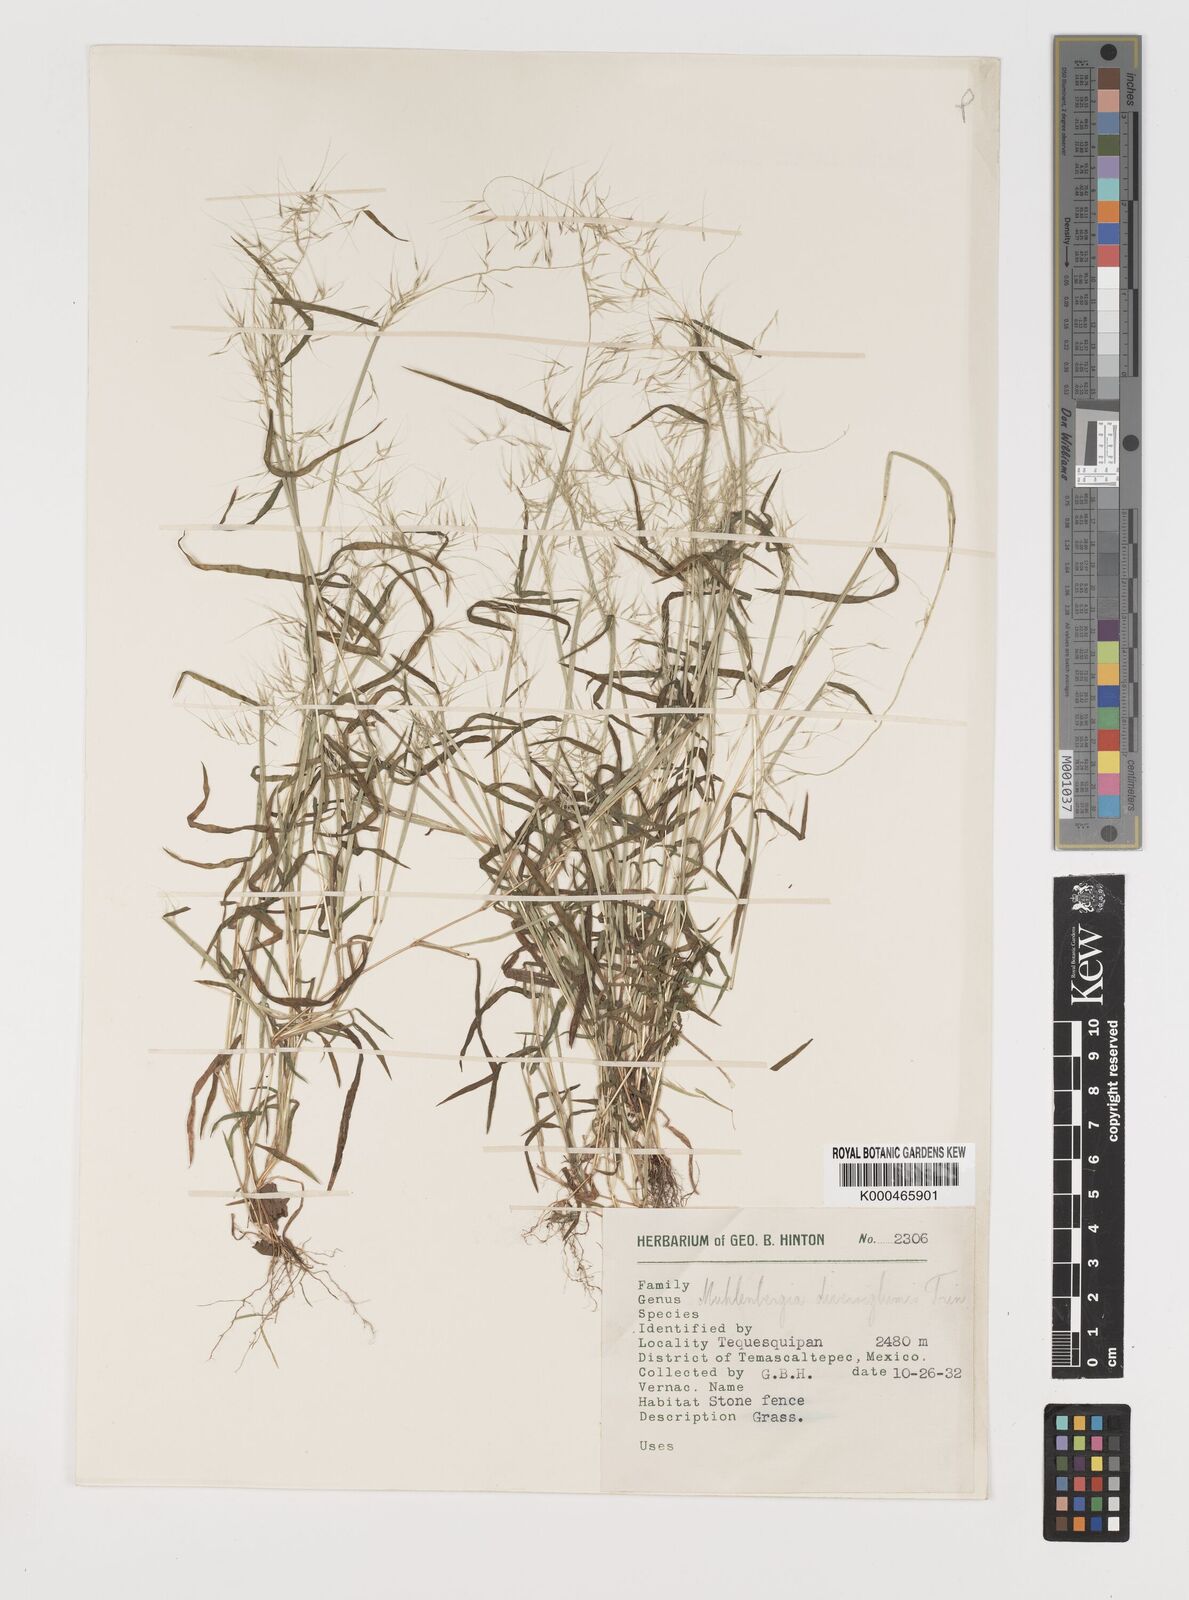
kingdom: Plantae
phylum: Tracheophyta
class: Liliopsida
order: Poales
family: Poaceae
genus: Muhlenbergia
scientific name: Muhlenbergia diversiglumis
